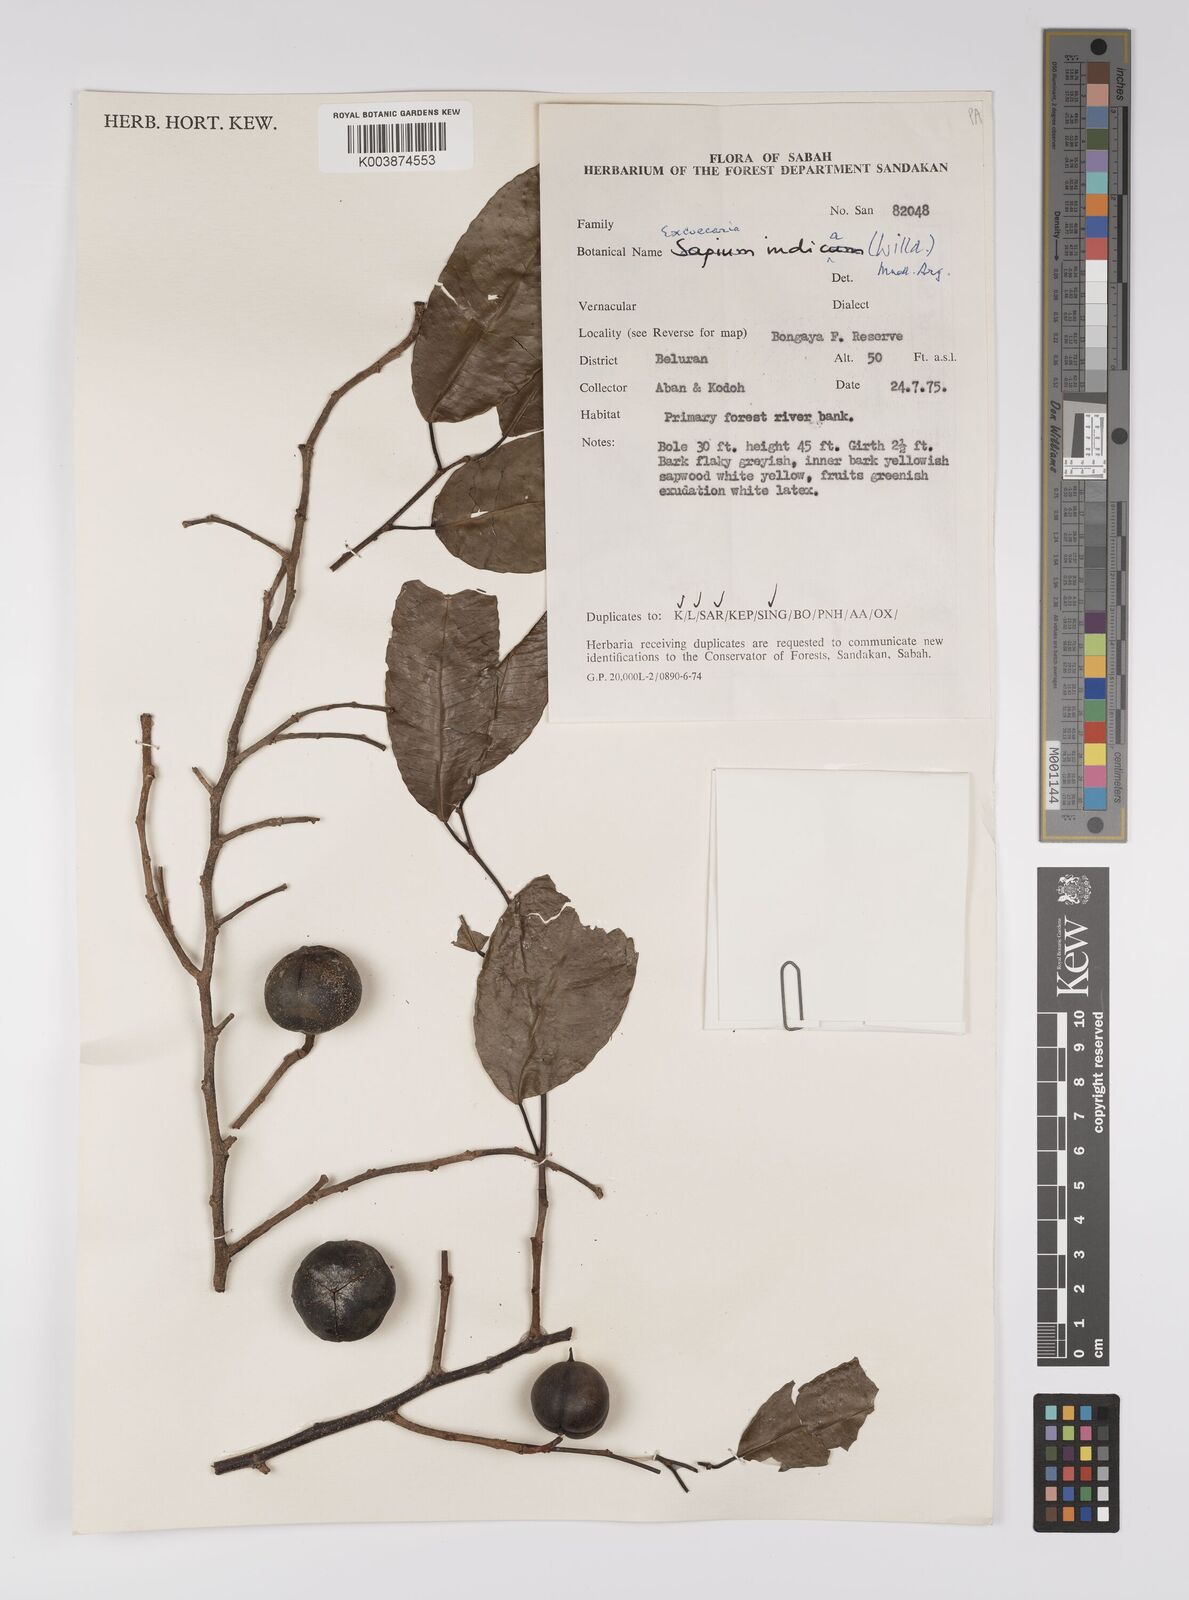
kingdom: Plantae
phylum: Tracheophyta
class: Magnoliopsida
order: Malpighiales
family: Euphorbiaceae
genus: Shirakiopsis
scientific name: Shirakiopsis indica
